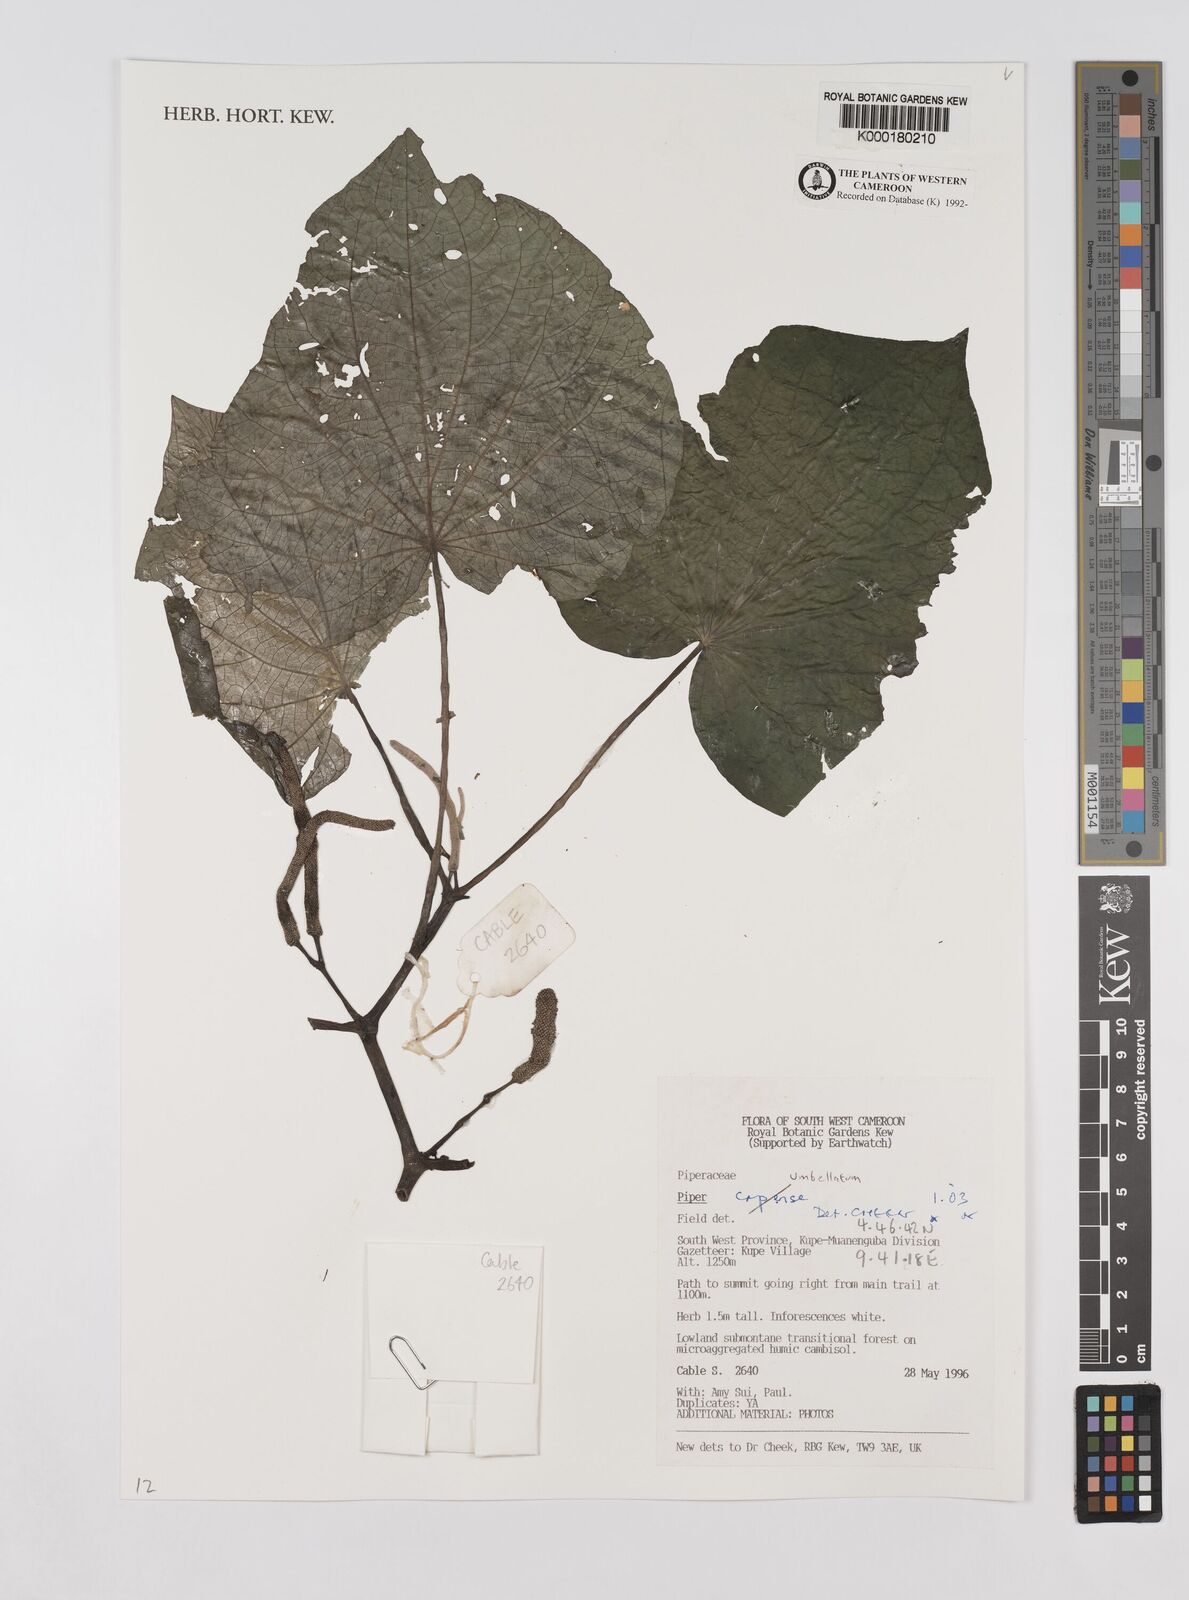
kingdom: Plantae
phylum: Tracheophyta
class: Magnoliopsida
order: Piperales
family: Piperaceae
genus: Piper
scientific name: Piper umbellatum
